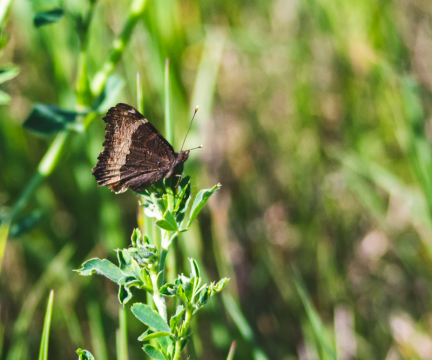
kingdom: Animalia
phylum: Arthropoda
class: Insecta
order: Lepidoptera
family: Nymphalidae
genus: Aglais
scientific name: Aglais milberti
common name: Milbert's Tortoiseshell
